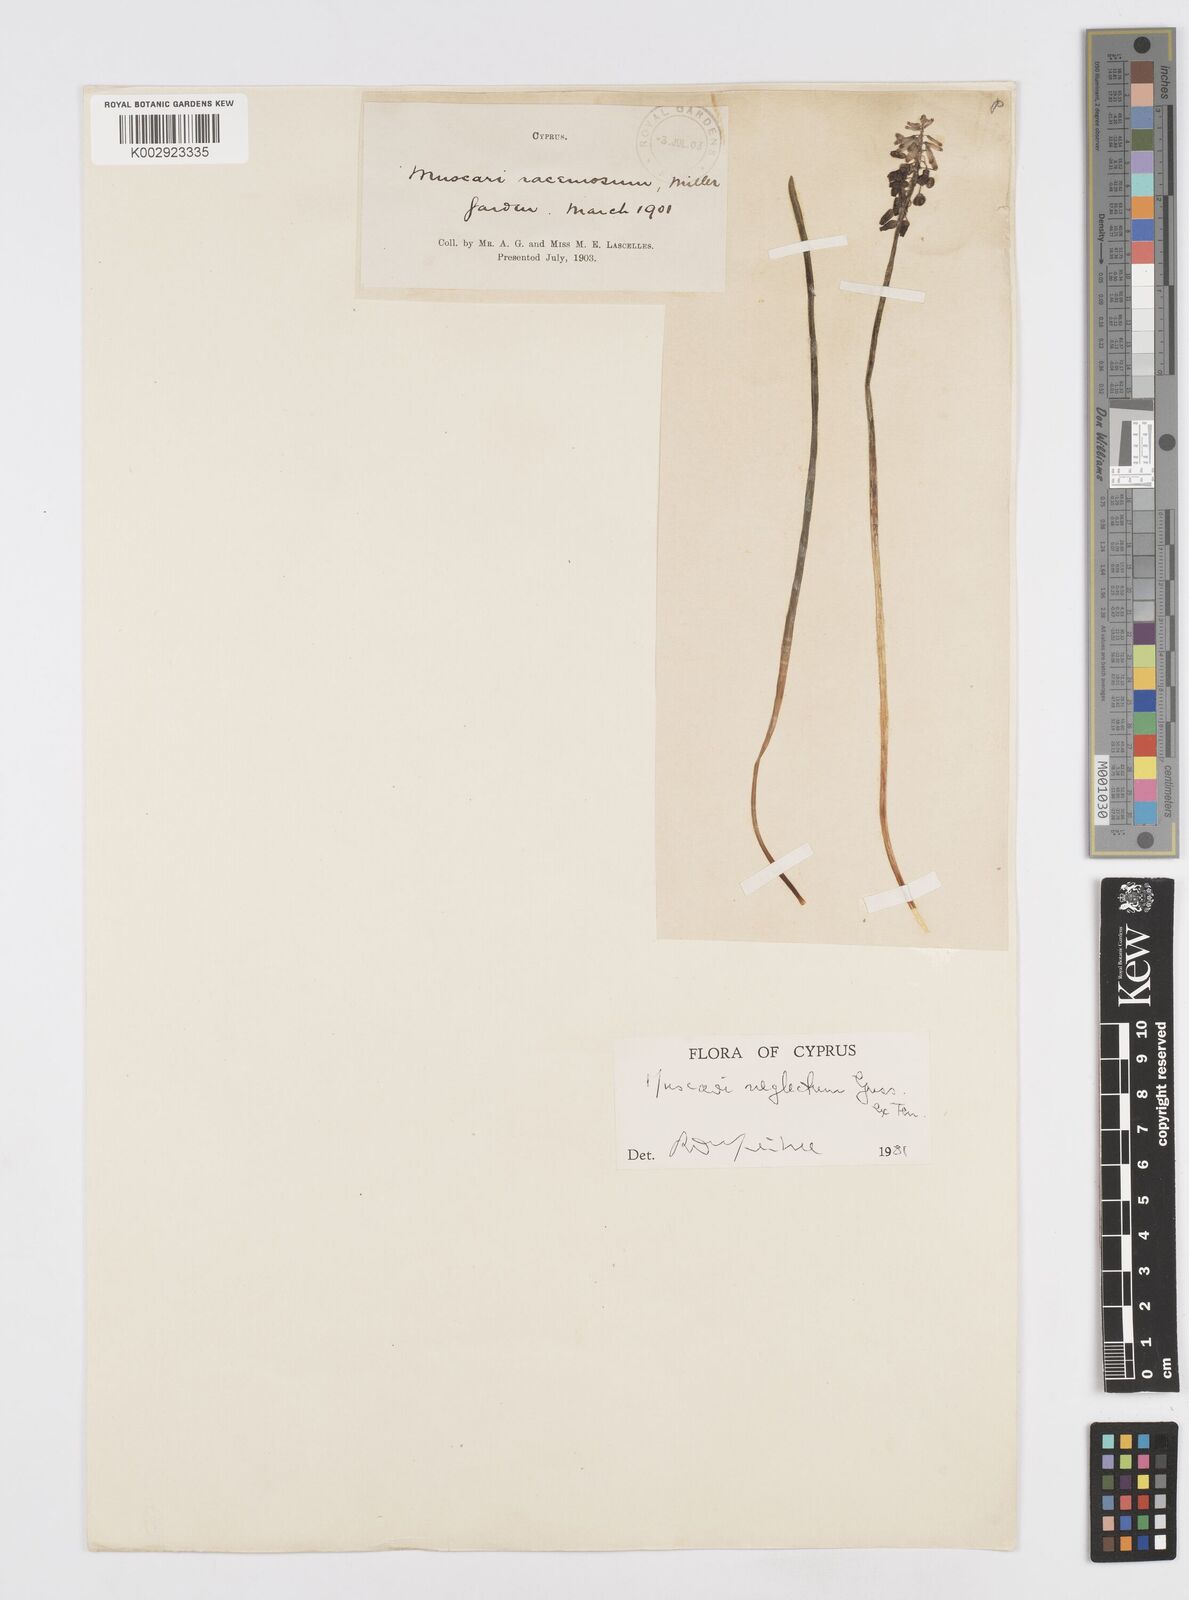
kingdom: Plantae
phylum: Tracheophyta
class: Liliopsida
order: Asparagales
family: Asparagaceae
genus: Muscari
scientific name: Muscari neglectum
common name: Grape-hyacinth
